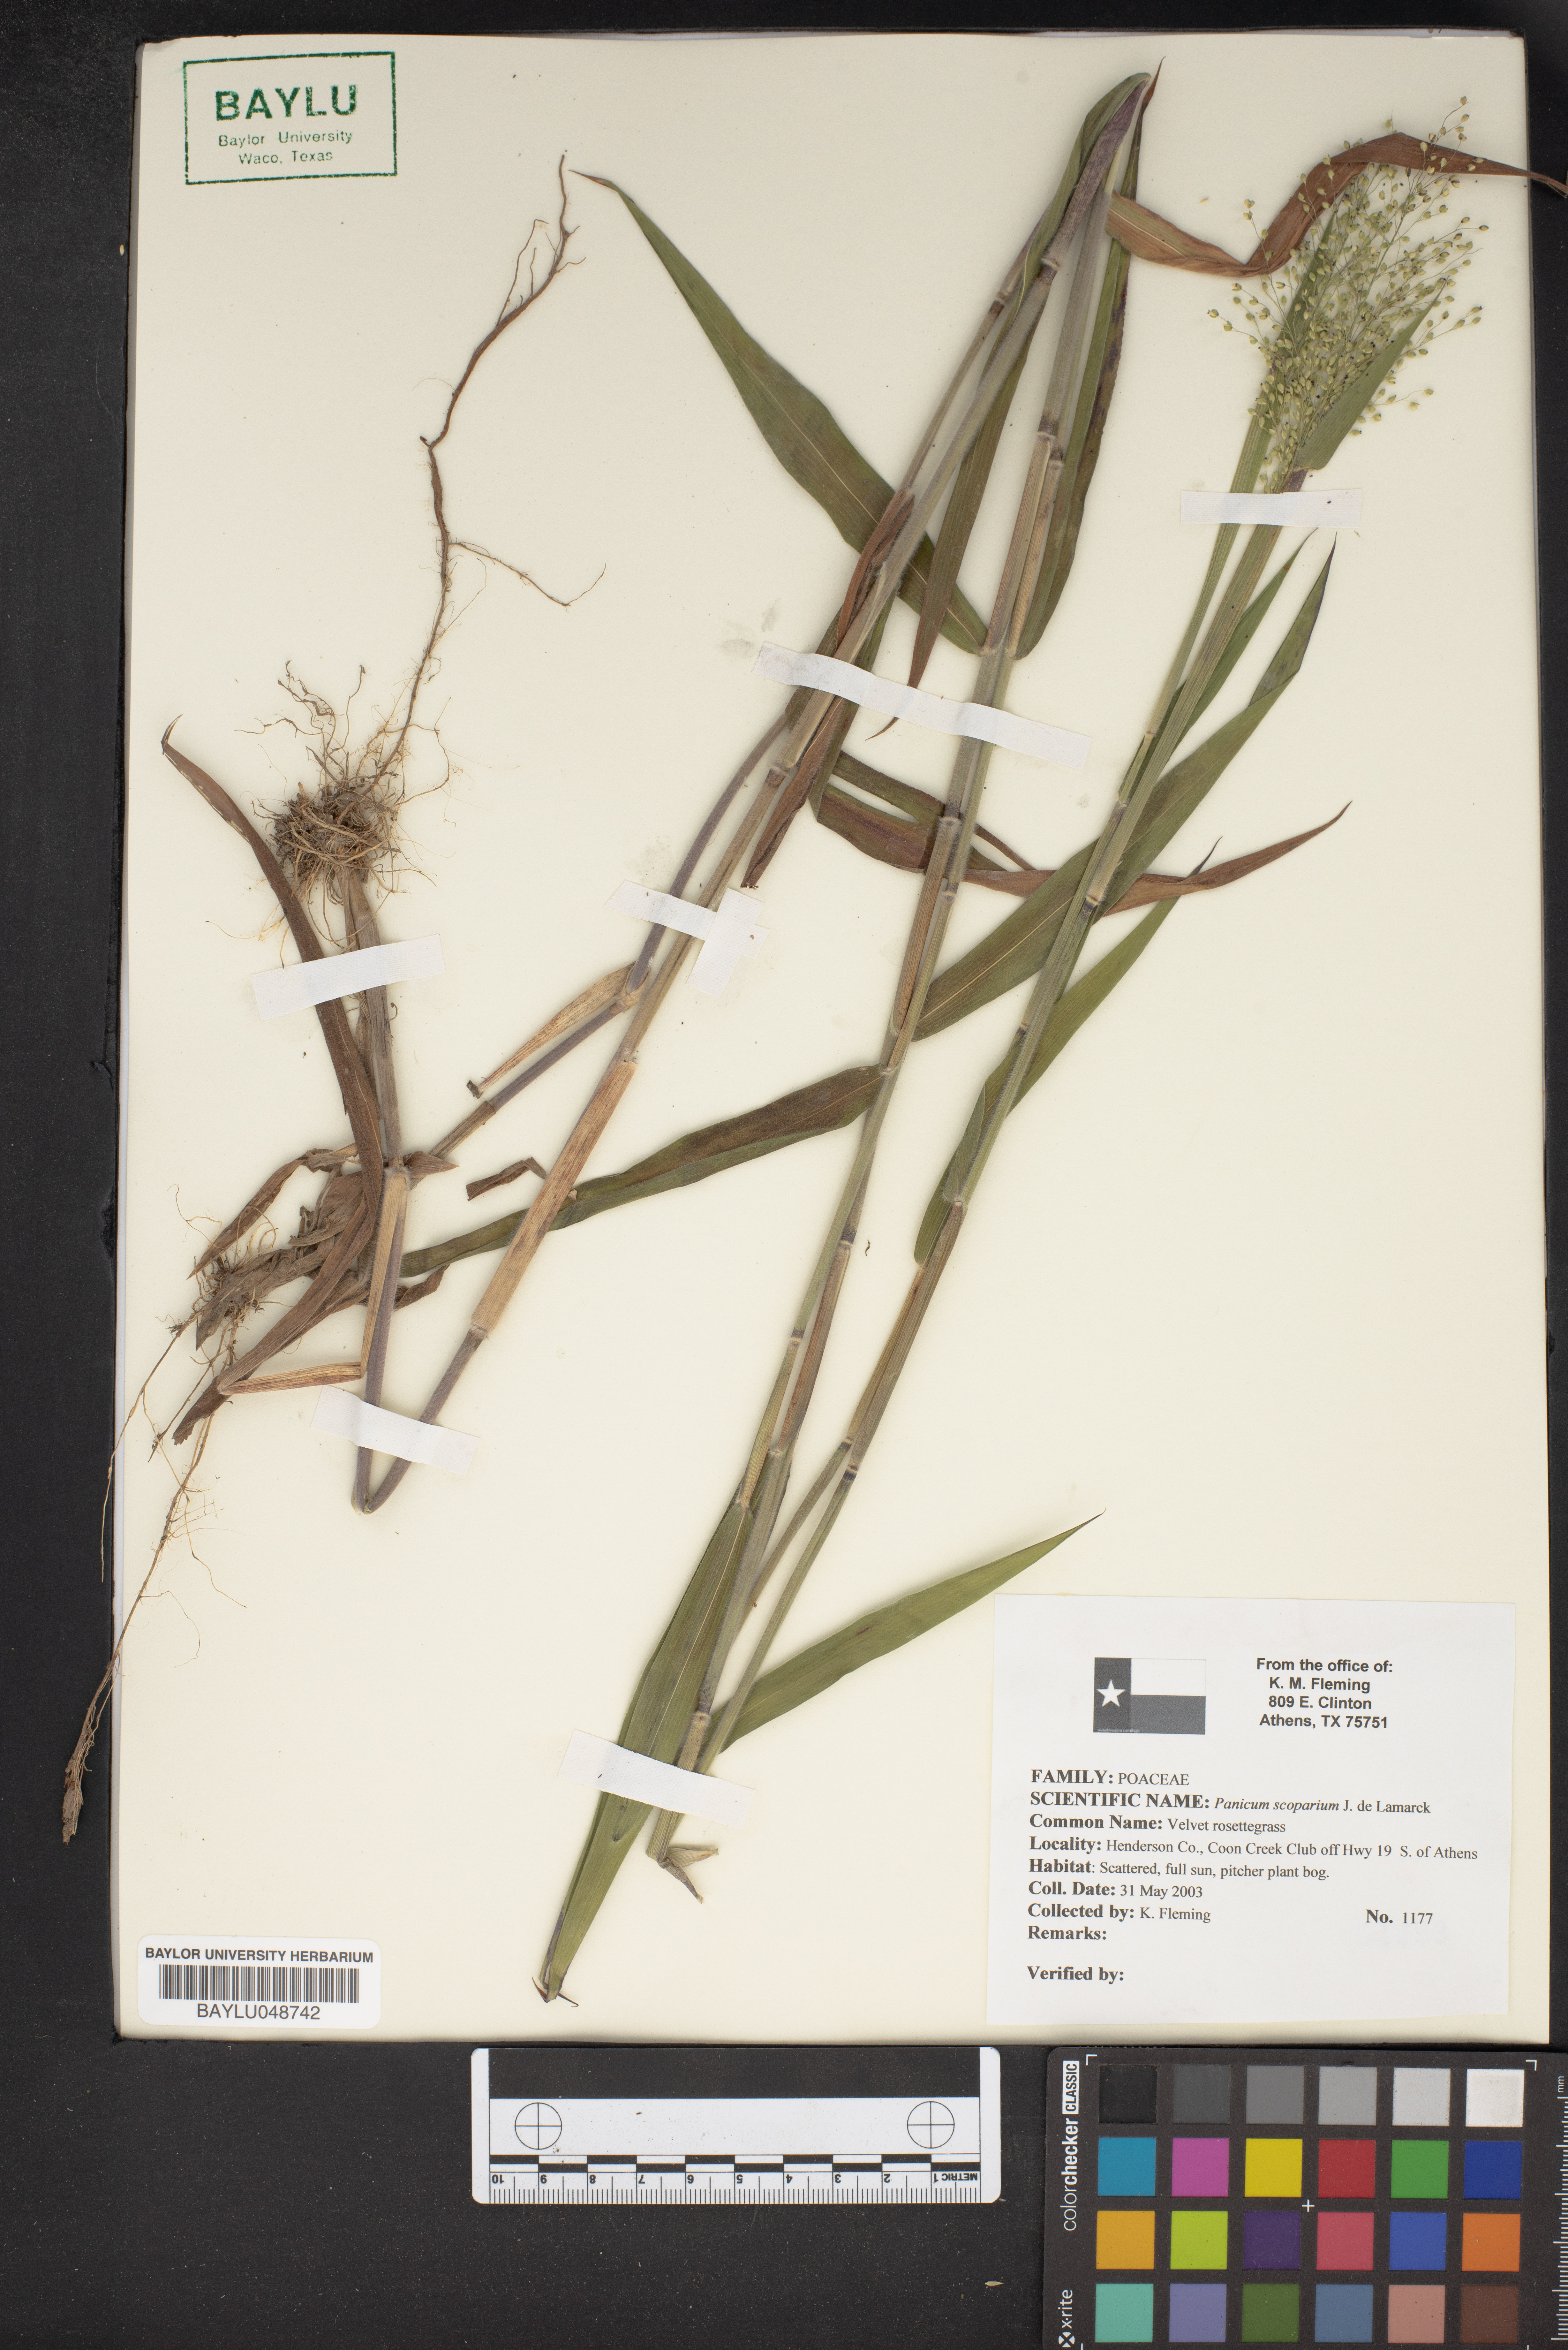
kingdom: Plantae
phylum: Tracheophyta
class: Liliopsida
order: Poales
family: Poaceae
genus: Dichanthelium
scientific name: Dichanthelium scribnerianum
